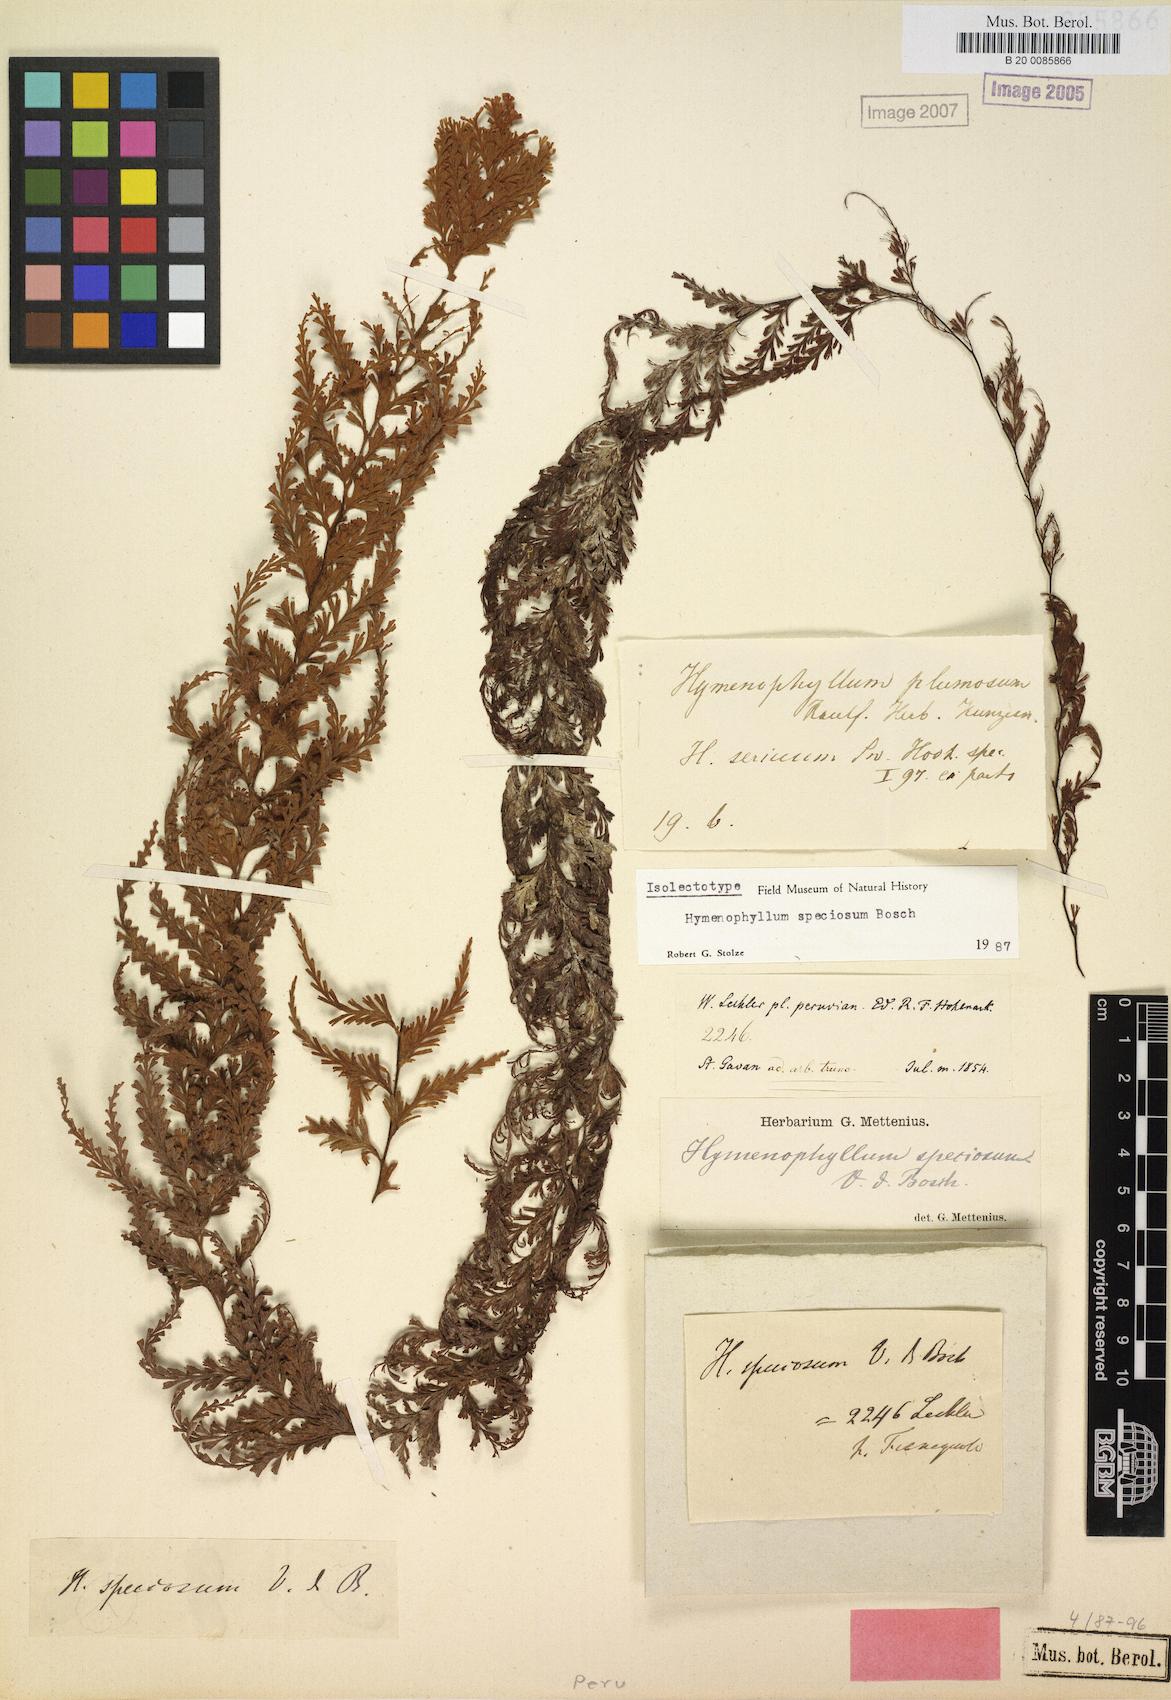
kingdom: Plantae
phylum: Tracheophyta
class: Polypodiopsida
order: Hymenophyllales
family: Hymenophyllaceae
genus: Hymenophyllum
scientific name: Hymenophyllum sericeum
